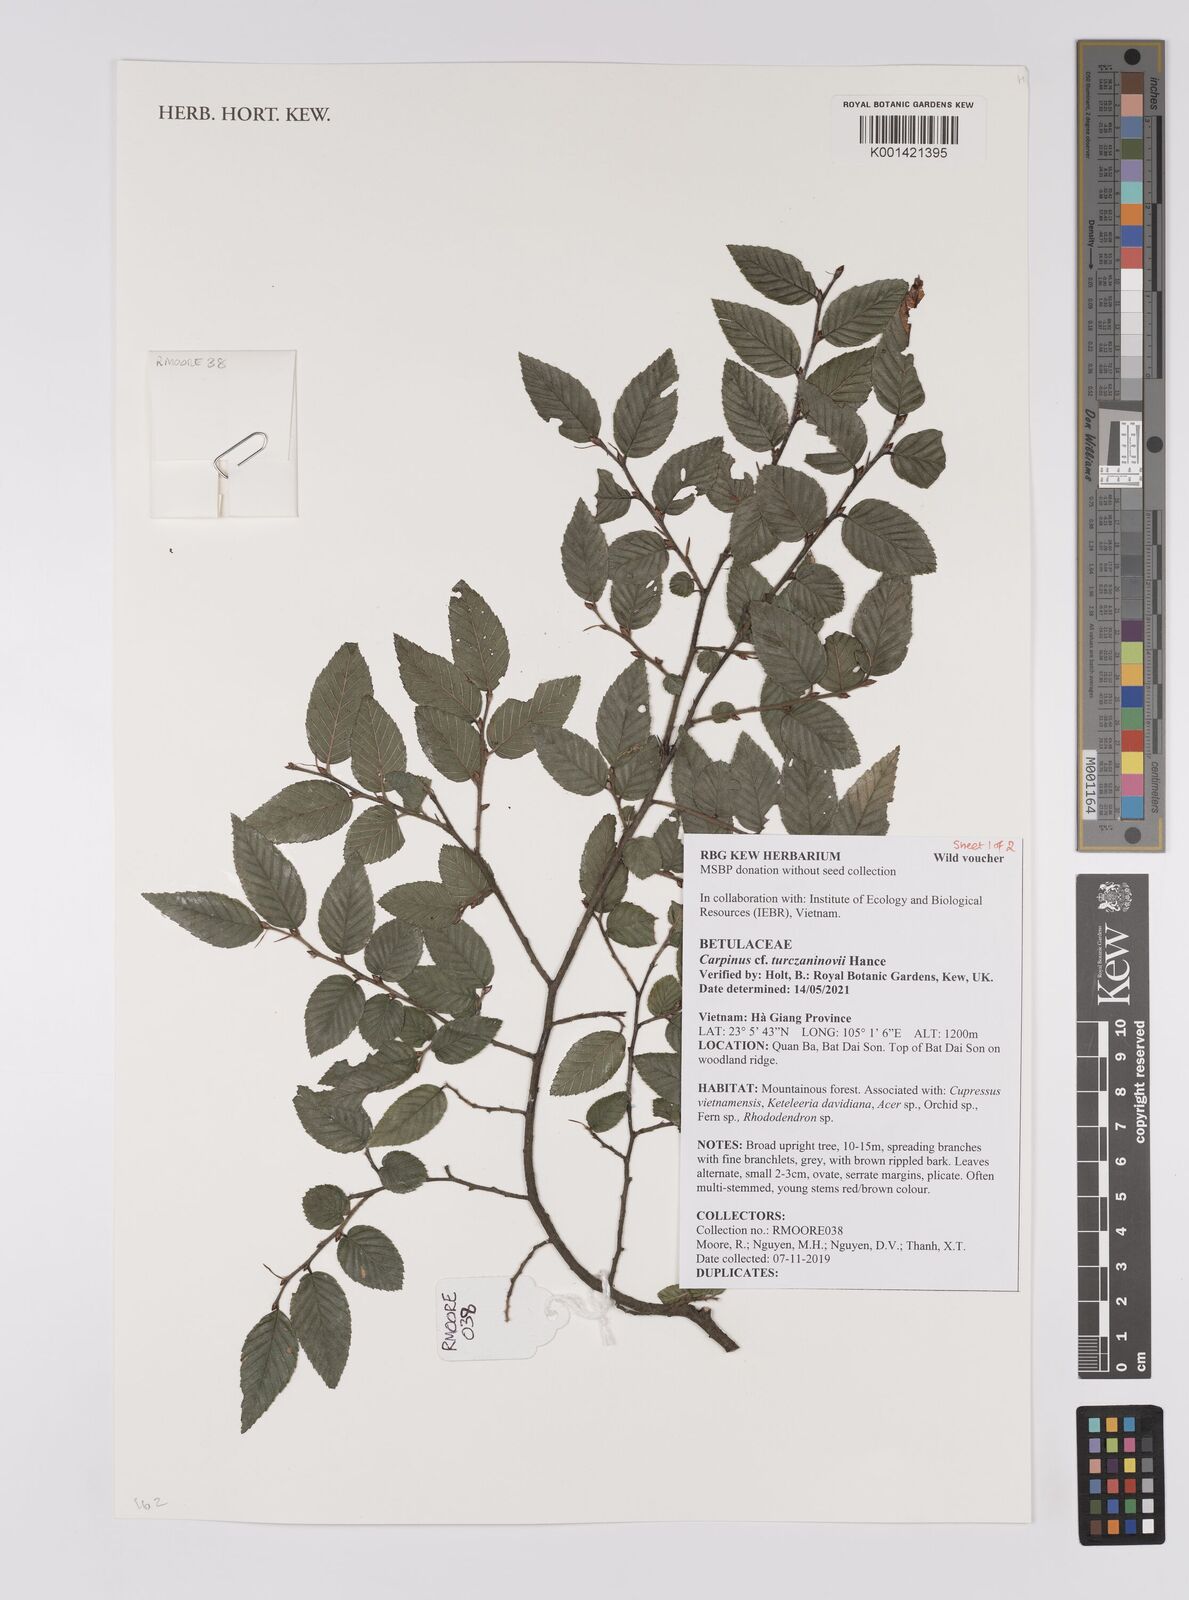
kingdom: Plantae
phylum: Tracheophyta
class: Magnoliopsida
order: Fagales
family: Betulaceae
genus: Carpinus
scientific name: Carpinus turczaninovii
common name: Korean hornbeam
